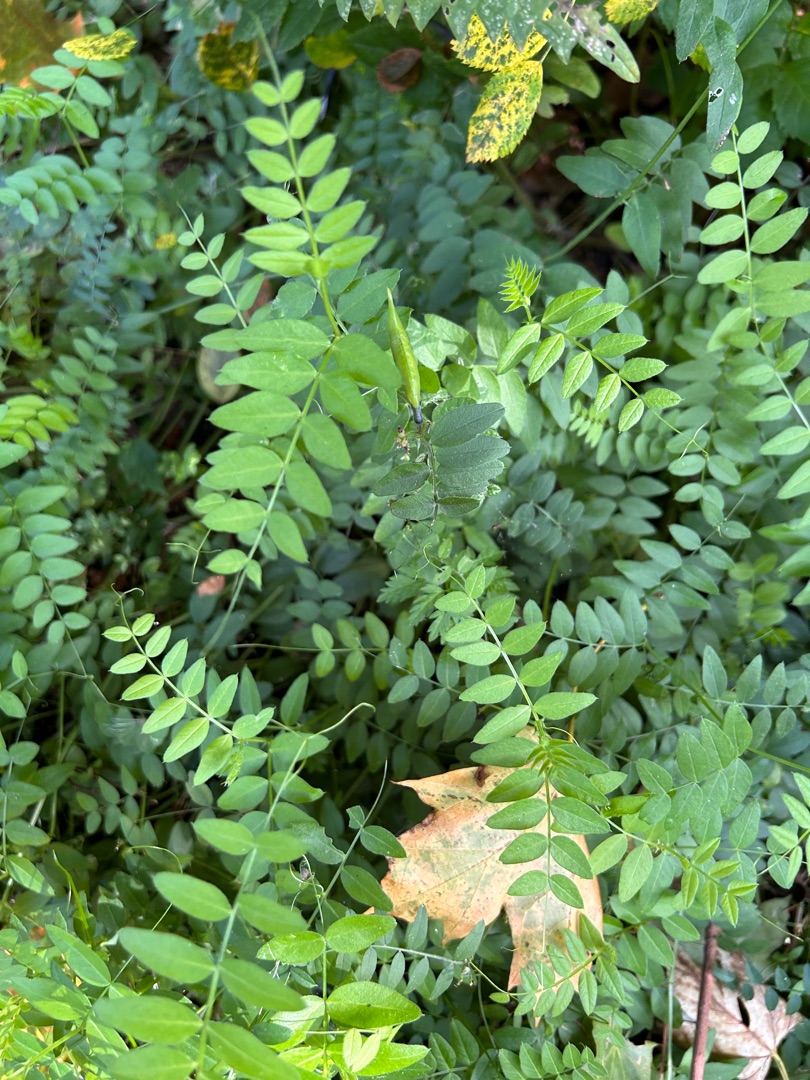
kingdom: Plantae
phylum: Tracheophyta
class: Magnoliopsida
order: Fabales
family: Fabaceae
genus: Vicia
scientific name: Vicia sepium
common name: Gærde-vikke
